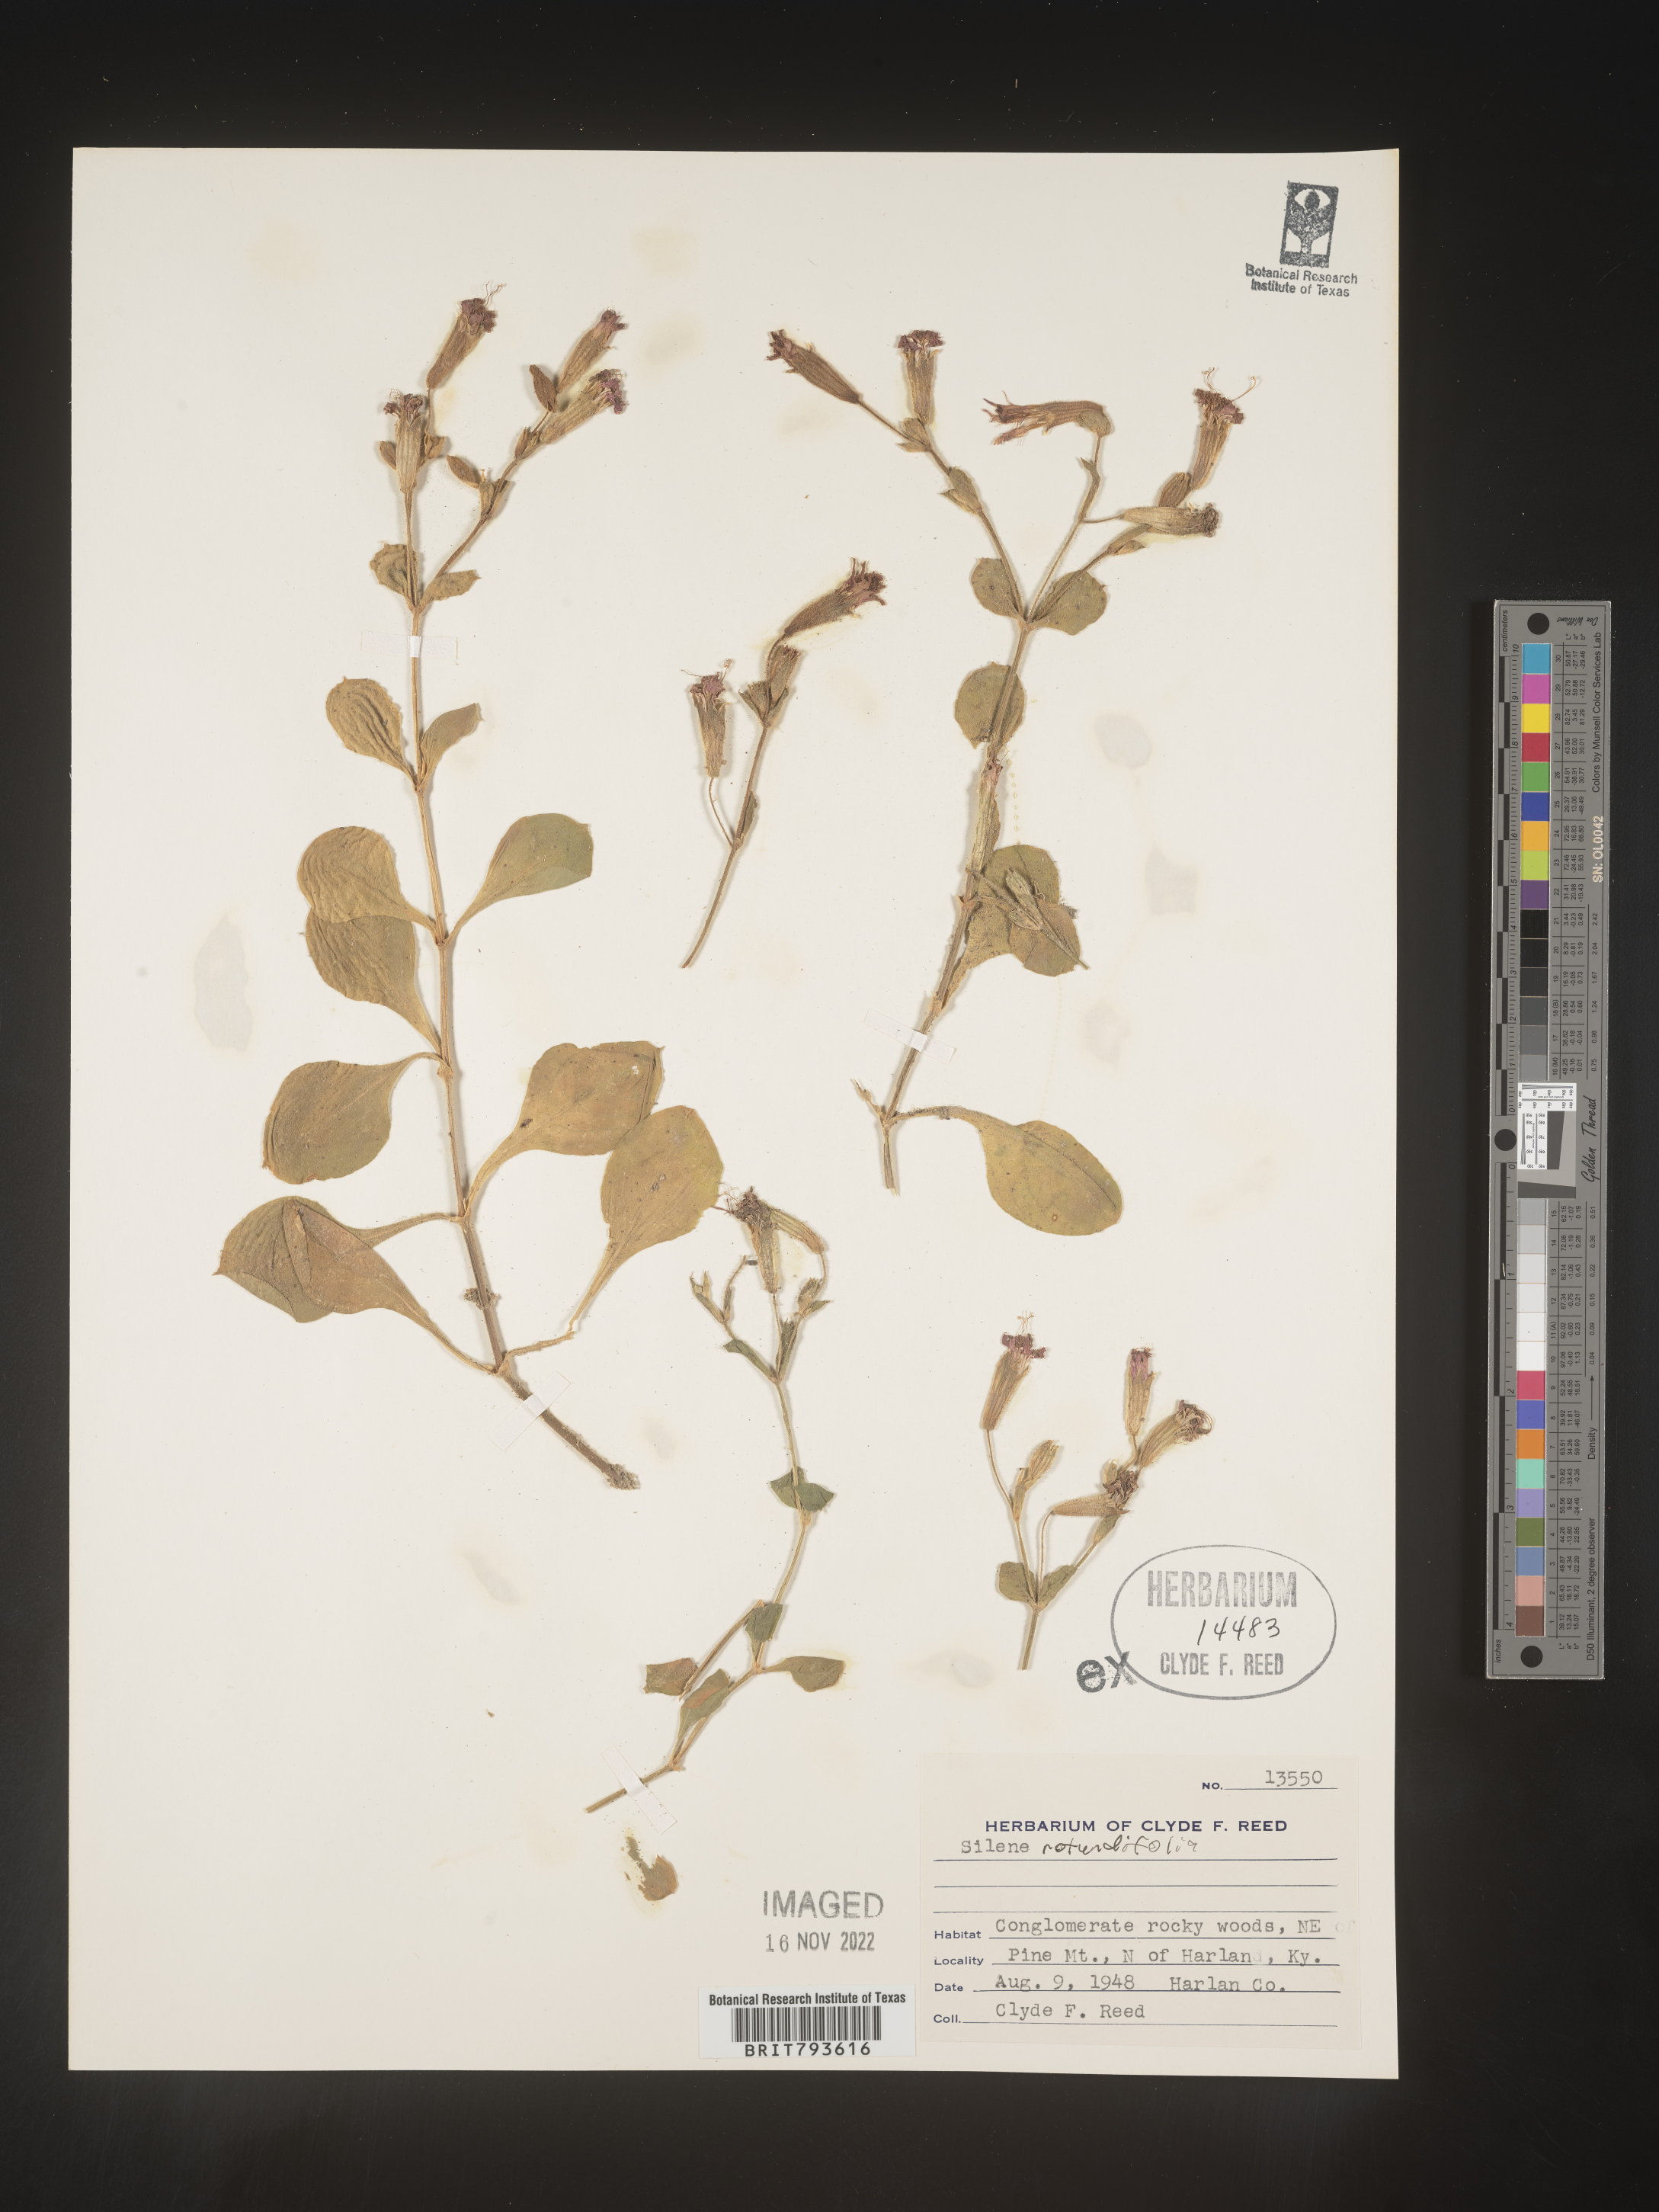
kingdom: Plantae
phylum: Tracheophyta
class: Magnoliopsida
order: Caryophyllales
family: Caryophyllaceae
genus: Silene
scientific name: Silene rotundifolia
